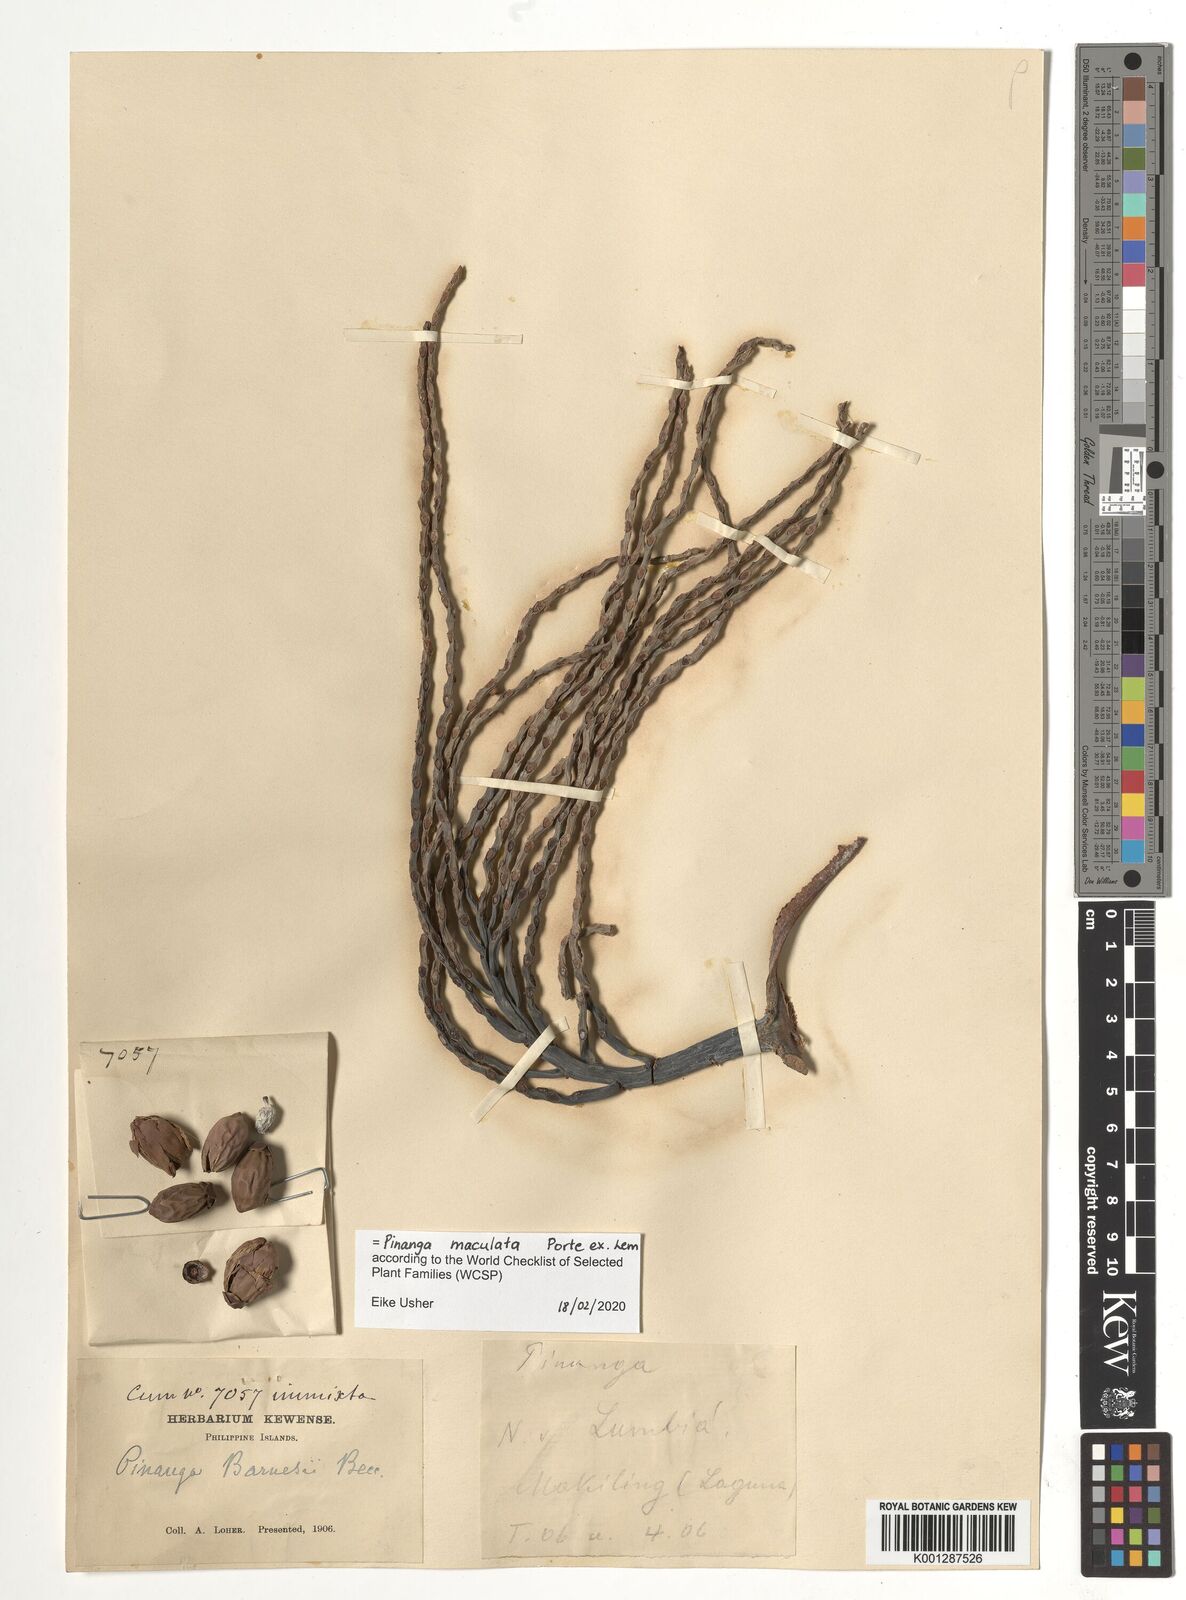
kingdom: Plantae
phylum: Tracheophyta
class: Liliopsida
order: Arecales
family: Arecaceae
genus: Pinanga
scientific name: Pinanga maculata
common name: Tiger palm
